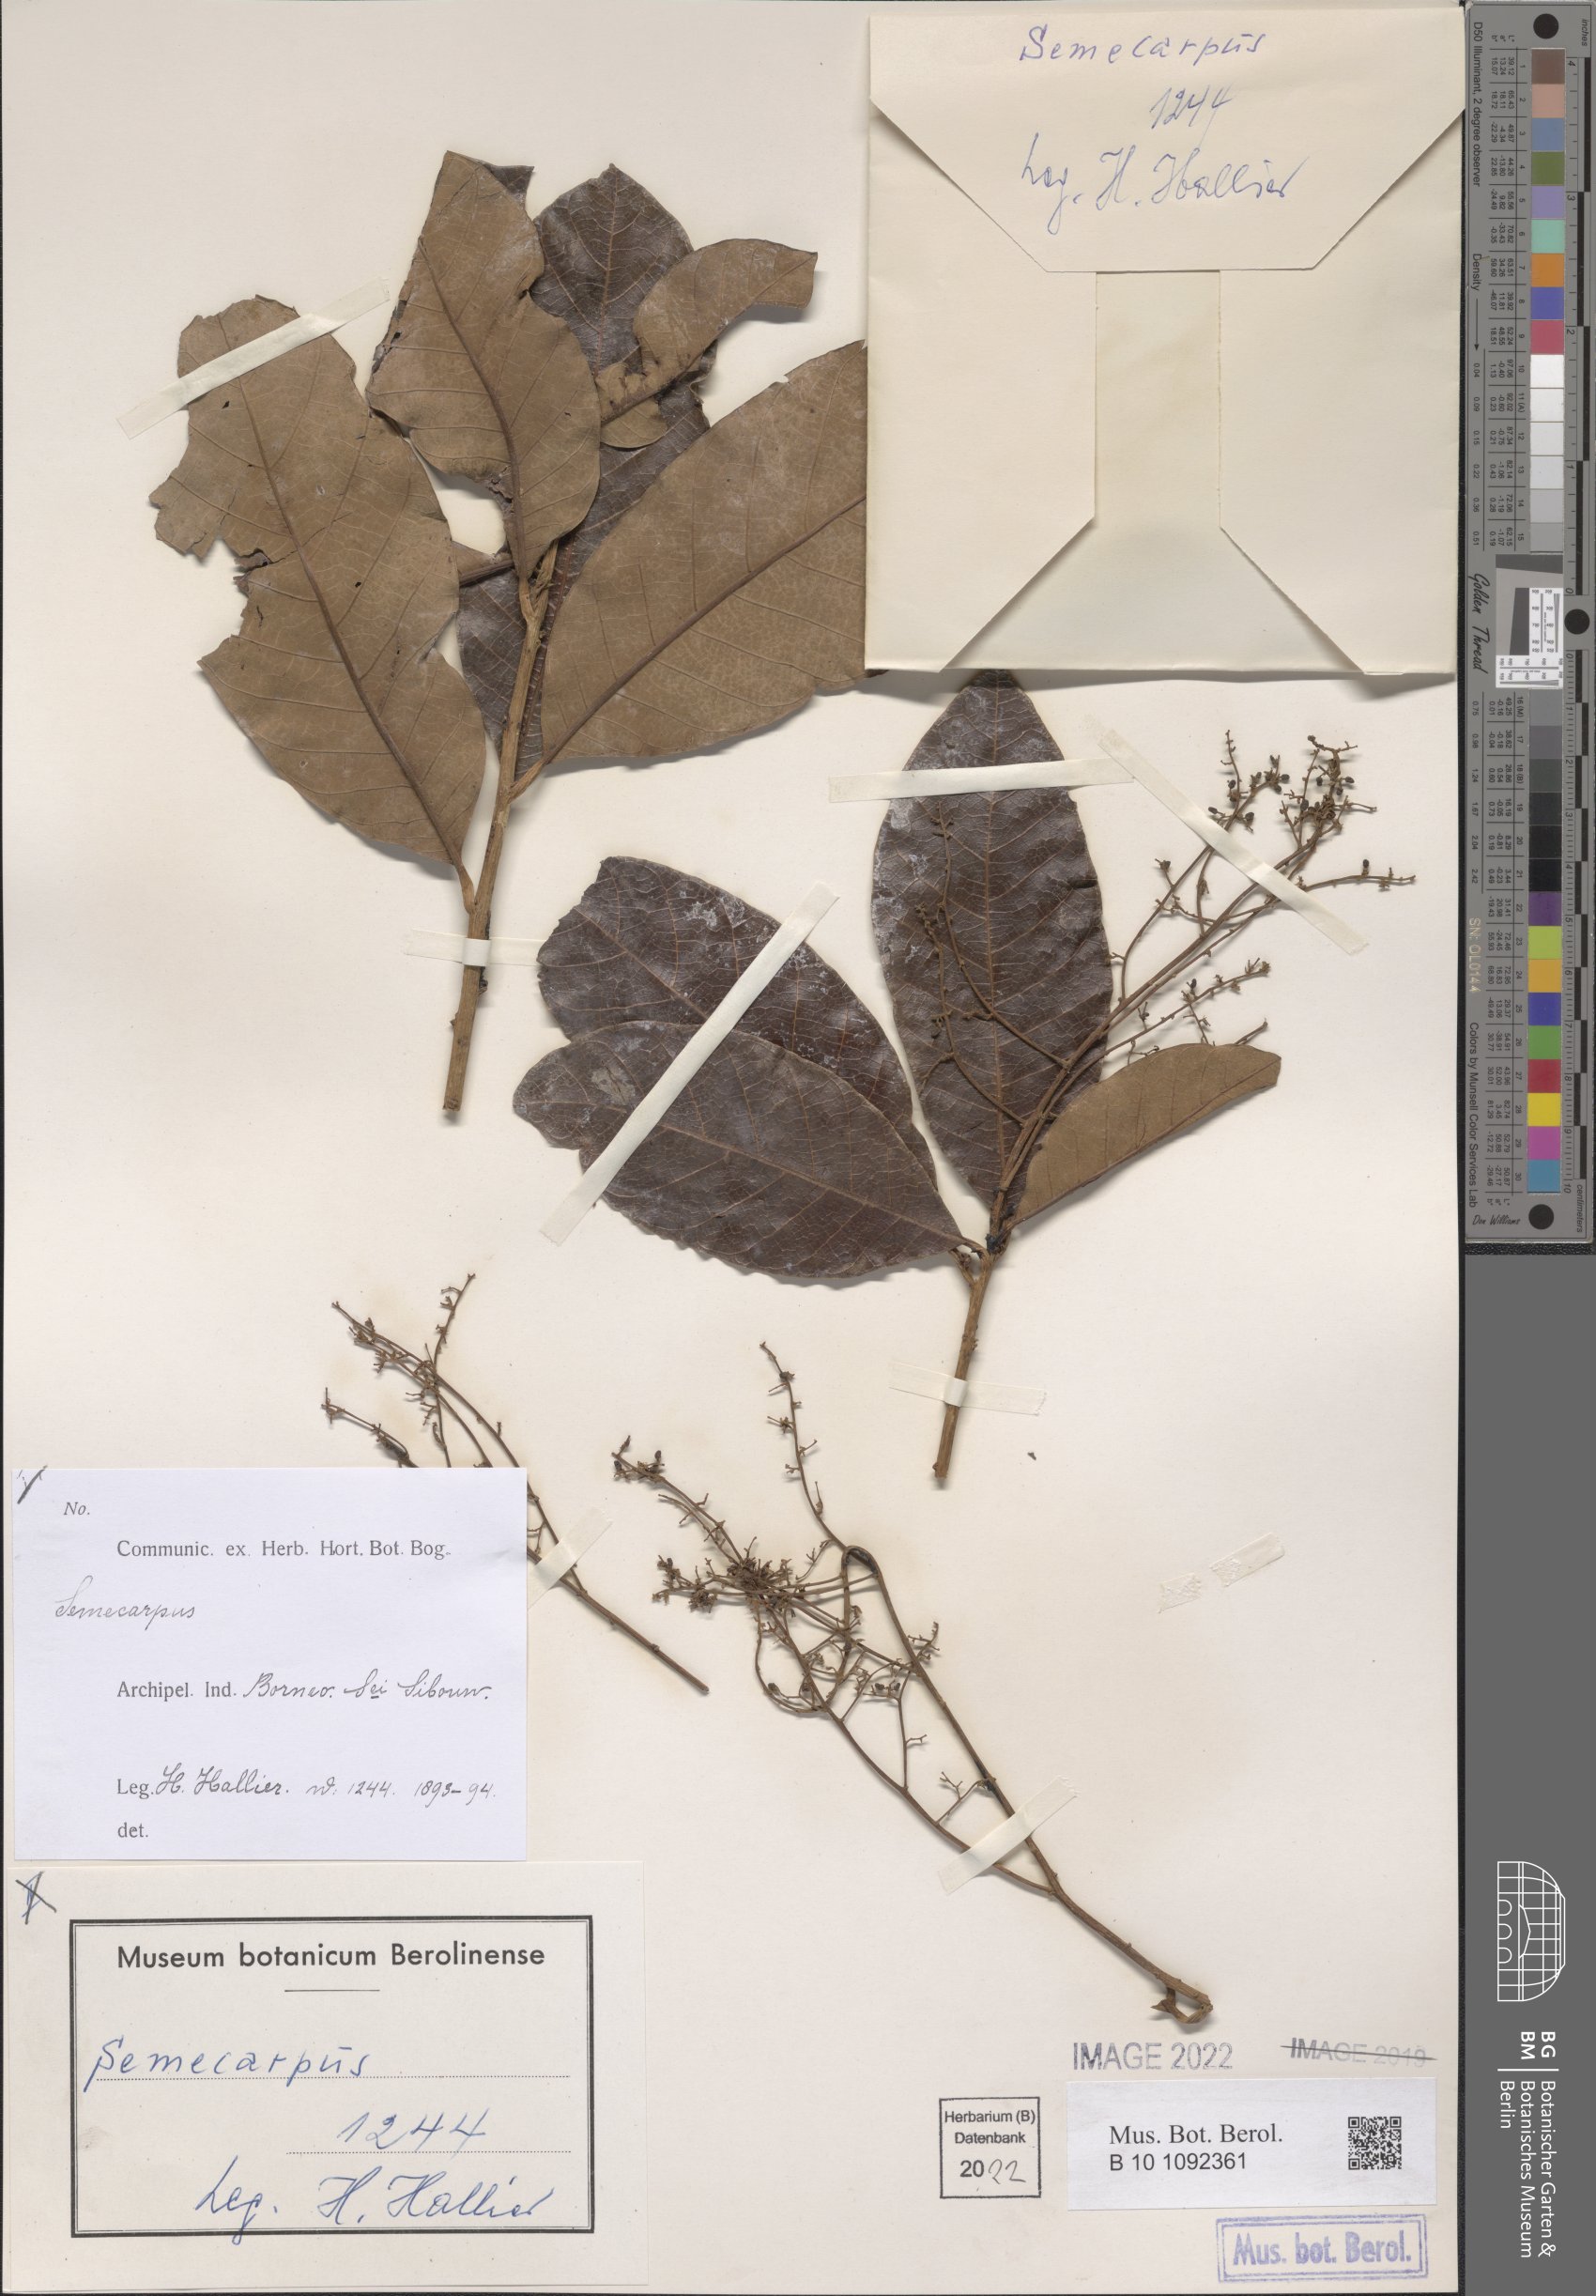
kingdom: Plantae
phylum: Tracheophyta
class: Magnoliopsida
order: Sapindales
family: Anacardiaceae
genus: Semecarpus
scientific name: Semecarpus
